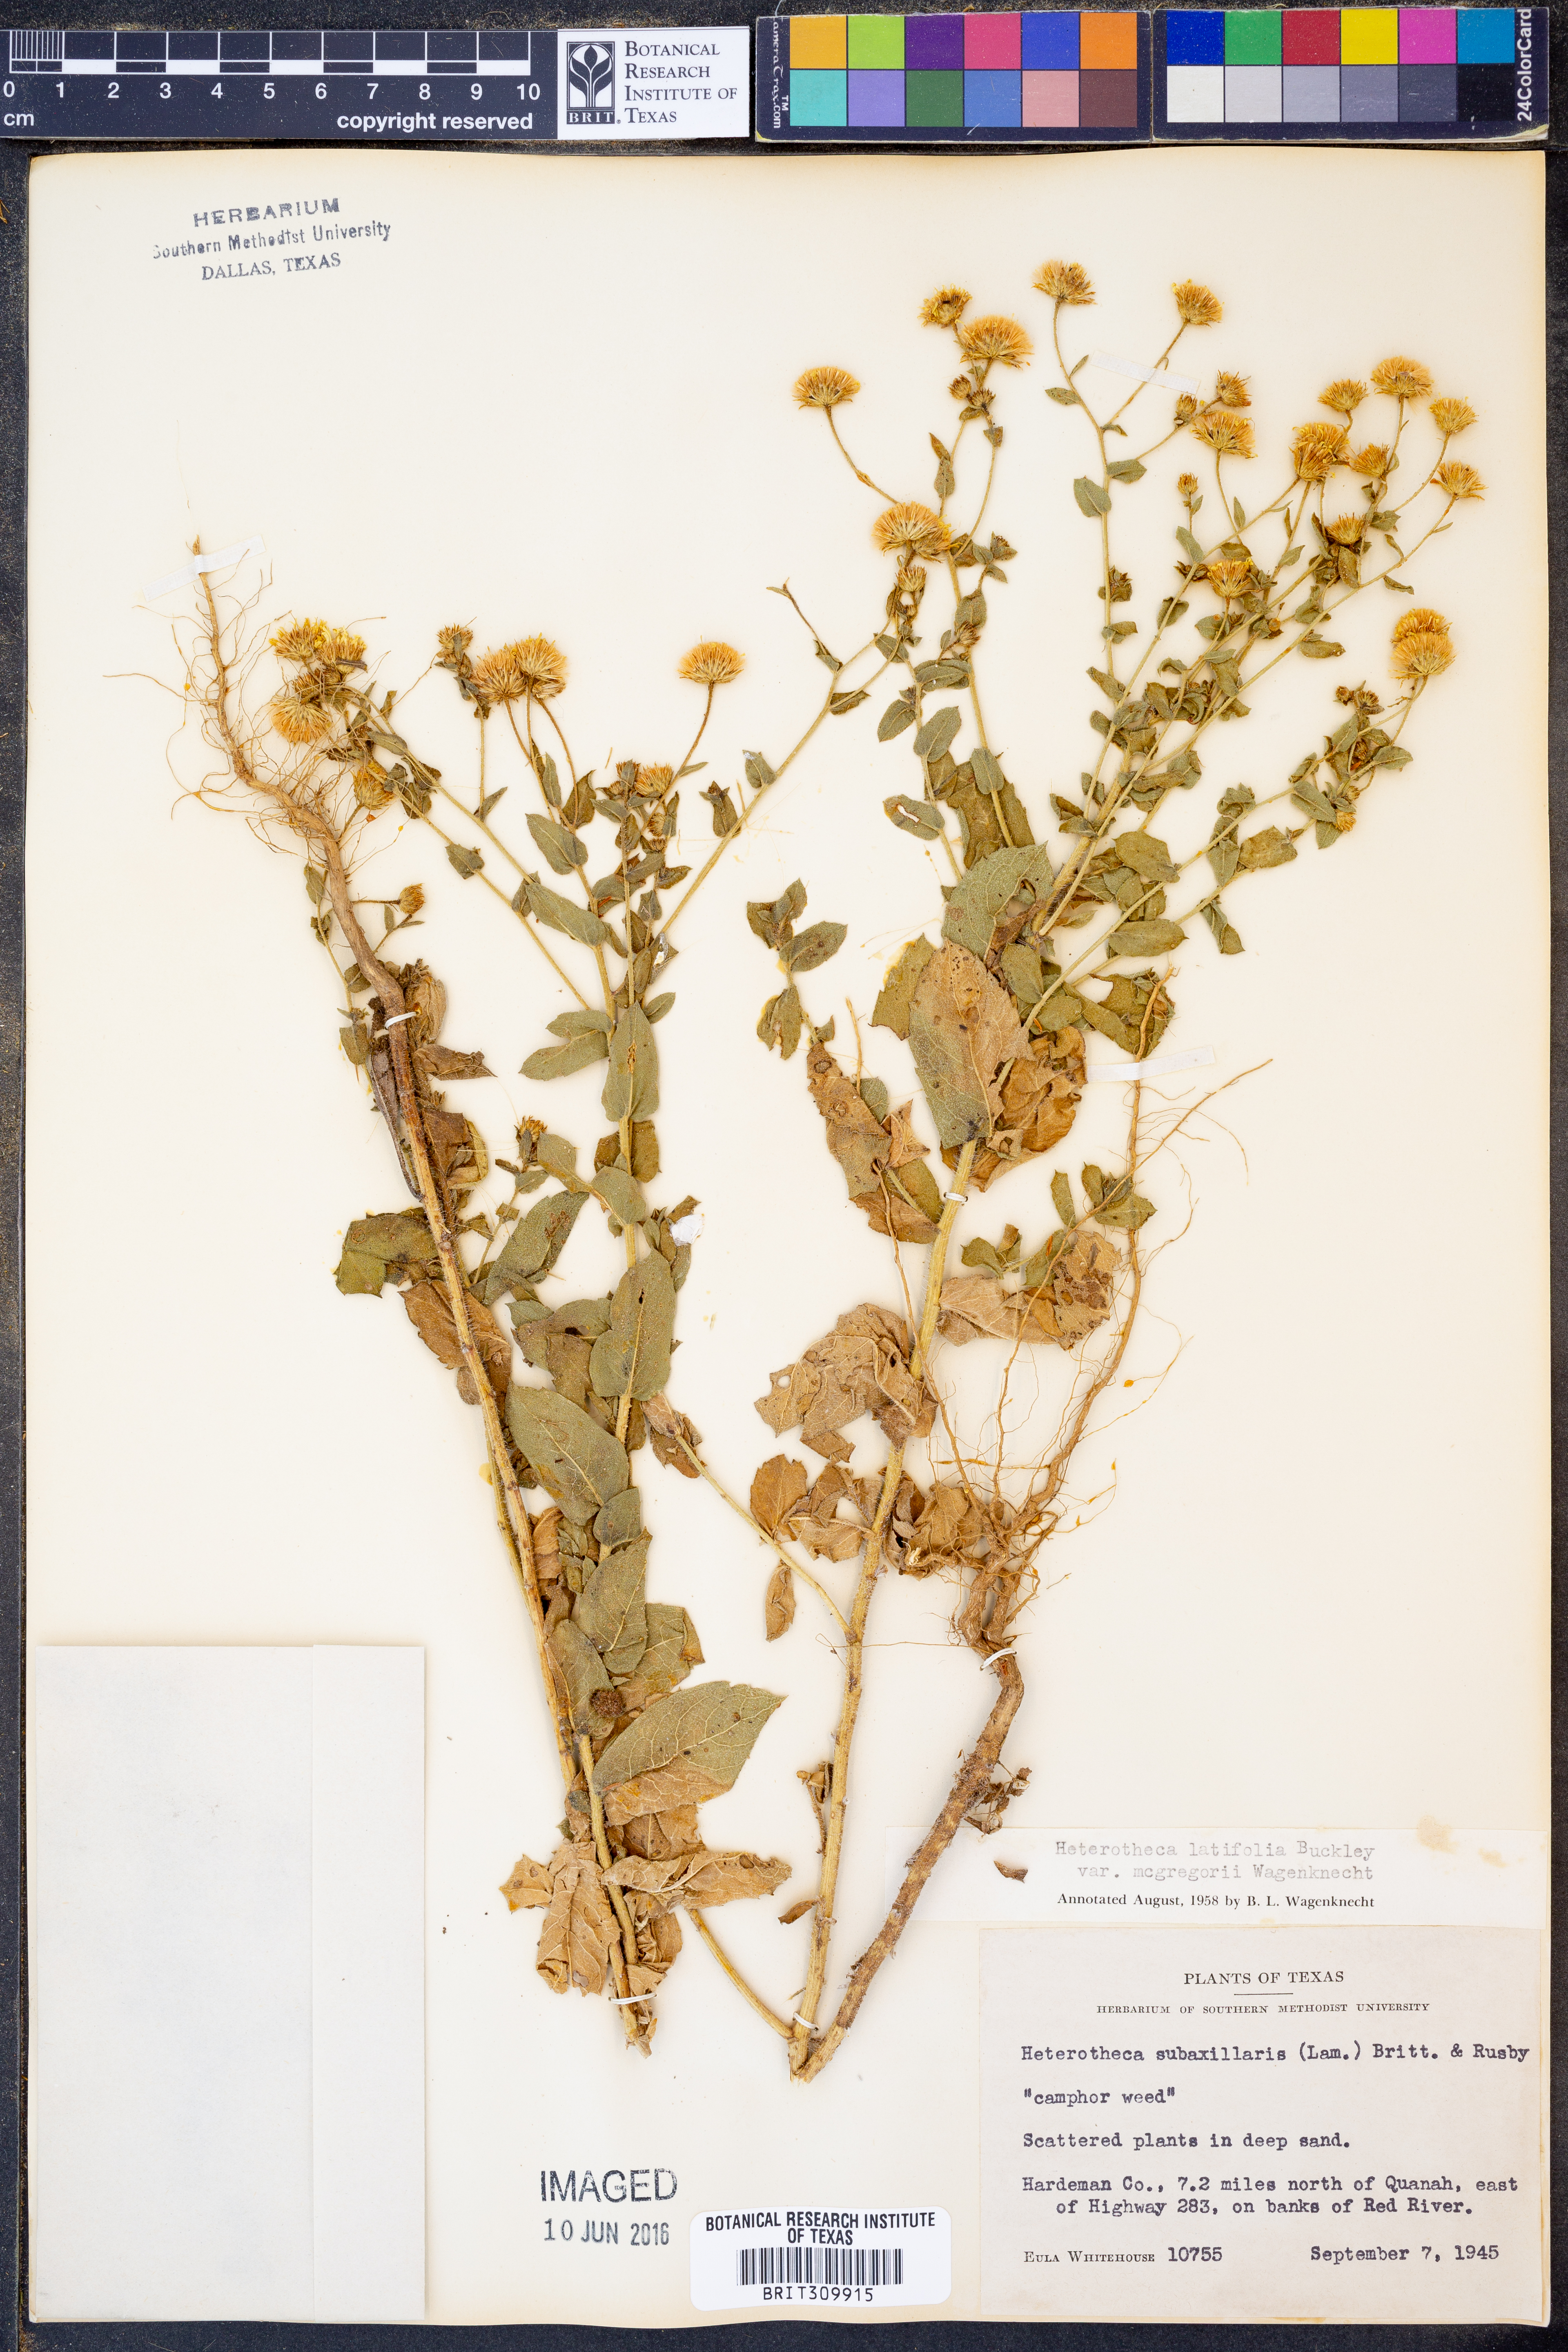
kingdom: Plantae
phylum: Tracheophyta
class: Magnoliopsida
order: Asterales
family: Asteraceae
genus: Heterotheca
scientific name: Heterotheca subaxillaris
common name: Camphorweed
